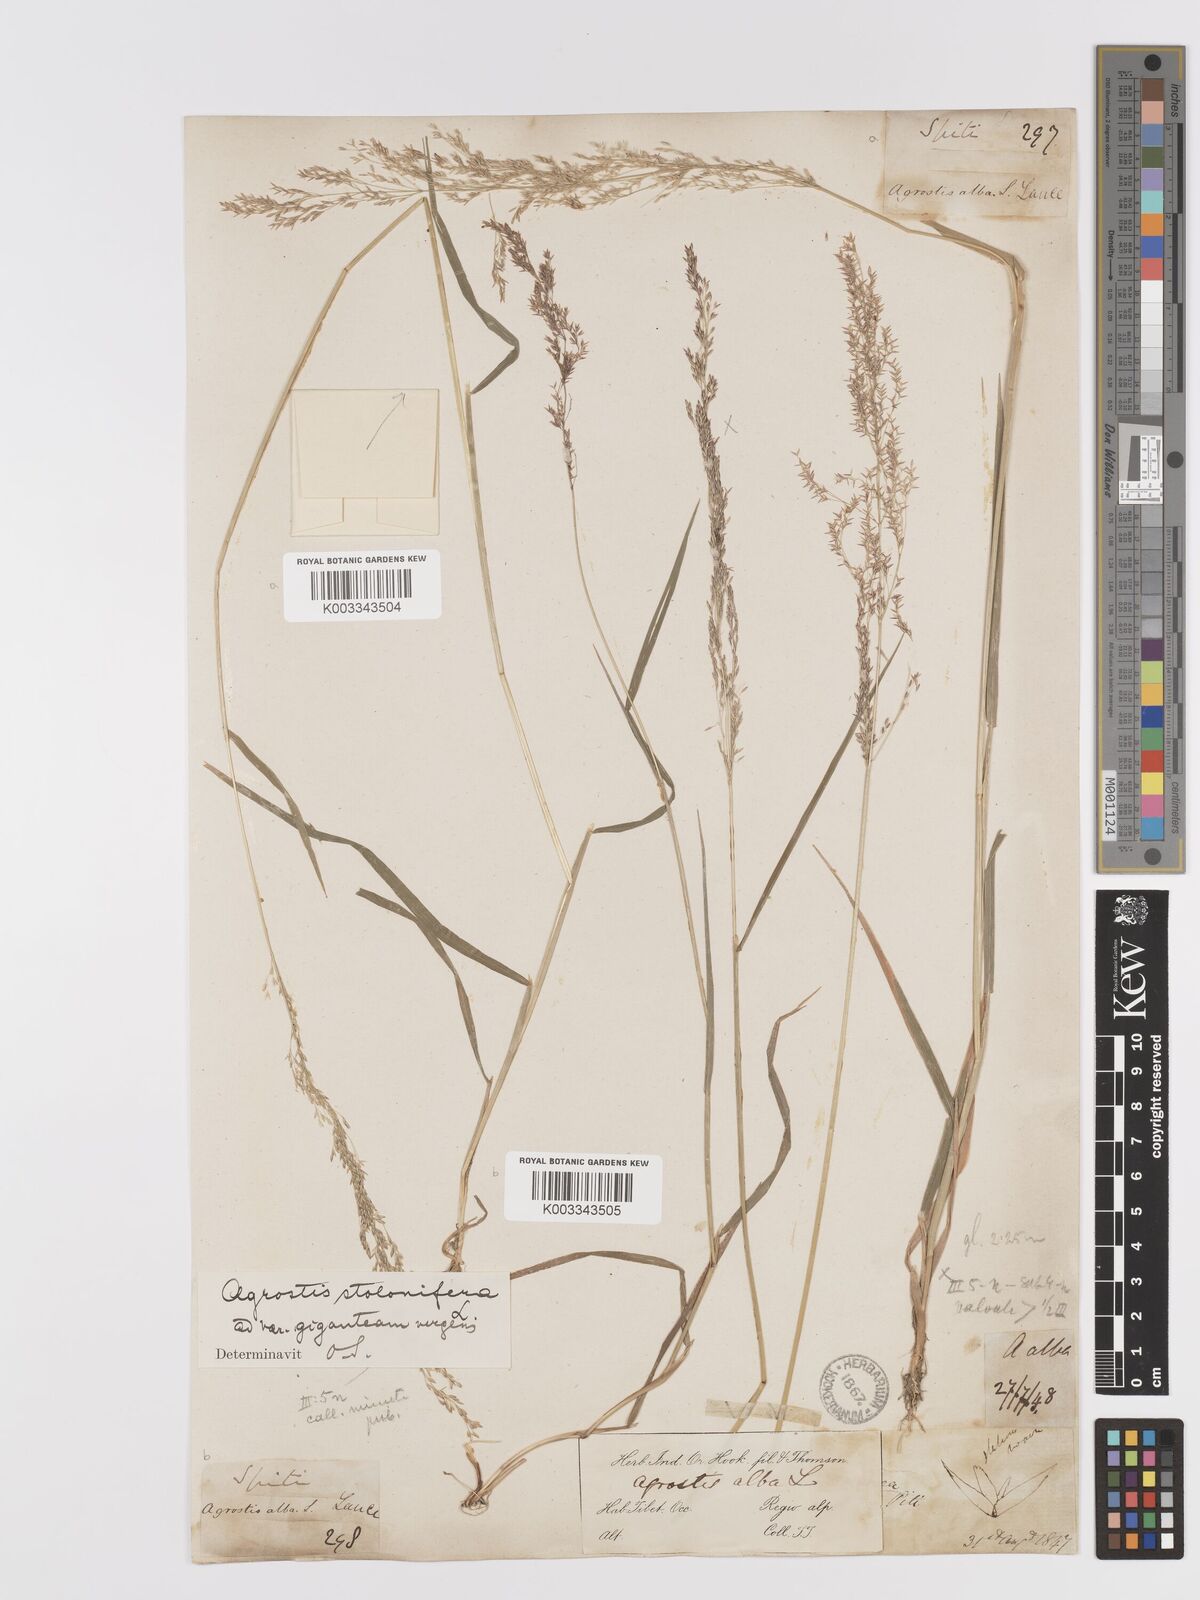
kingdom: Plantae
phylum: Tracheophyta
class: Liliopsida
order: Poales
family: Poaceae
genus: Agrostis
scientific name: Agrostis gigantea
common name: Black bent
